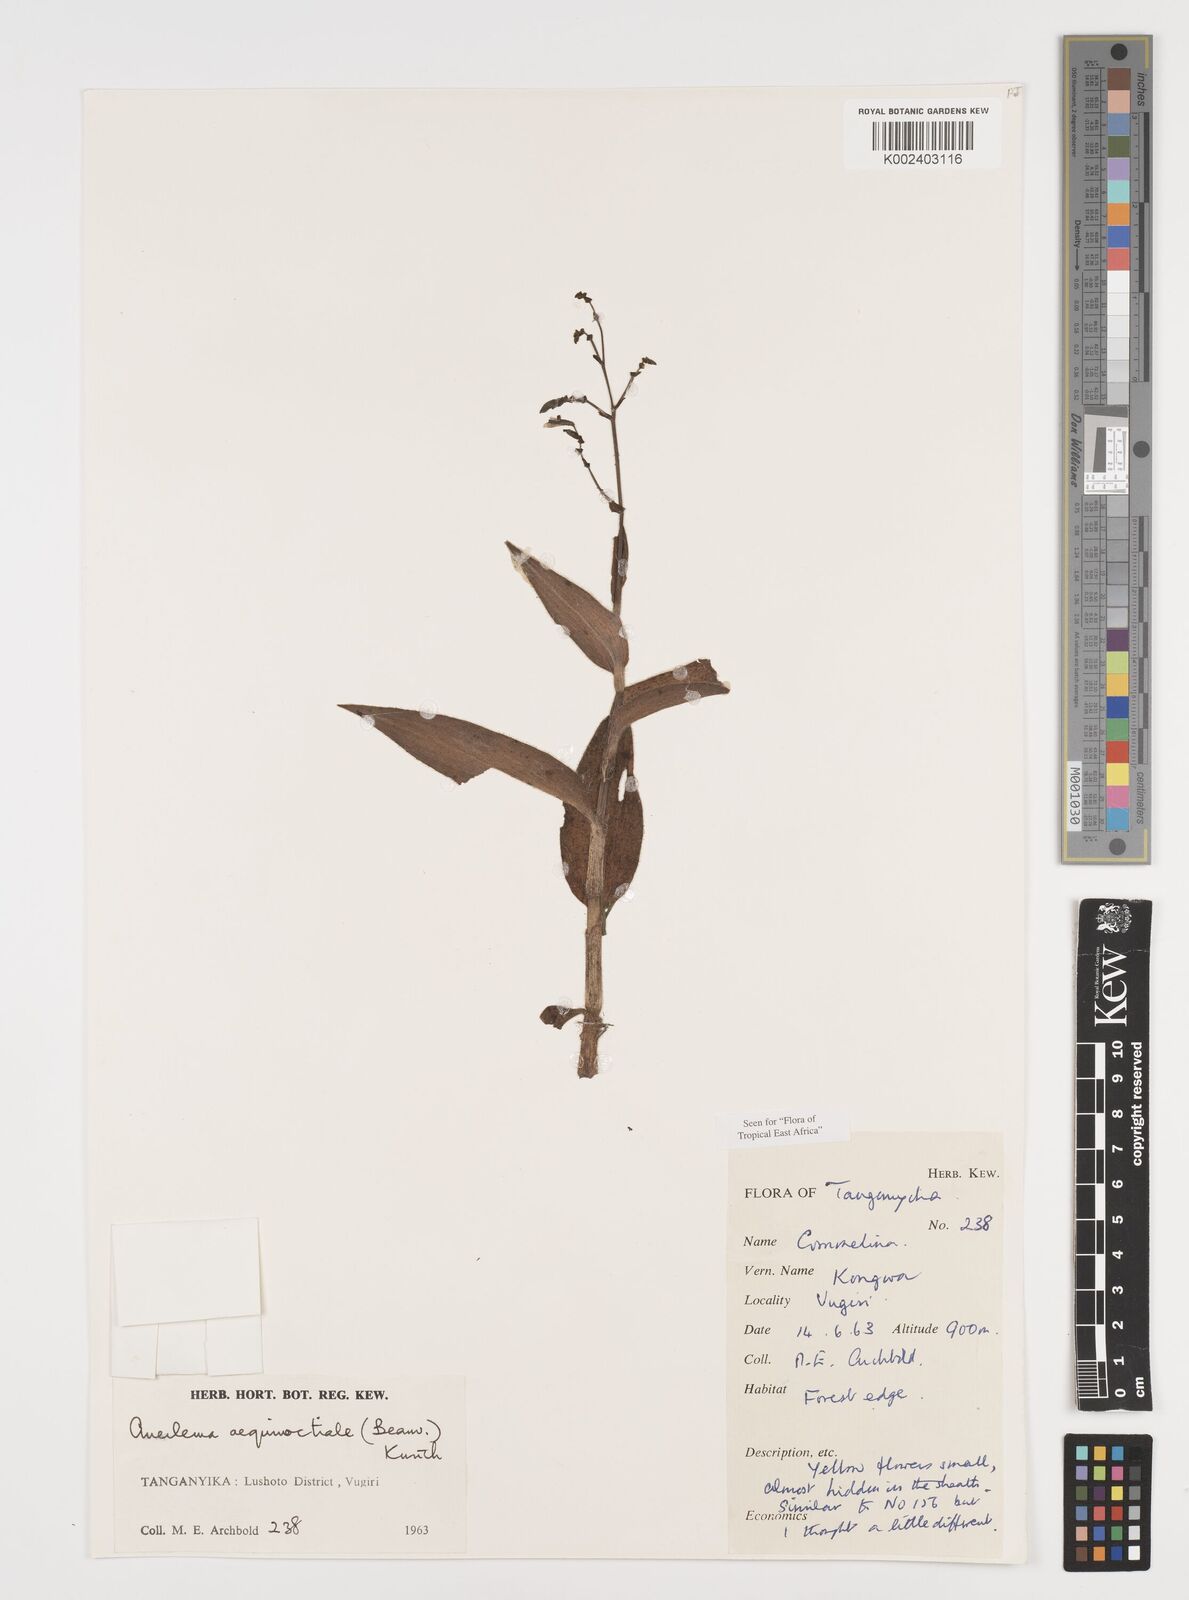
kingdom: Plantae
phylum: Tracheophyta
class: Liliopsida
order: Commelinales
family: Commelinaceae
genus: Aneilema
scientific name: Aneilema aequinoctiale
